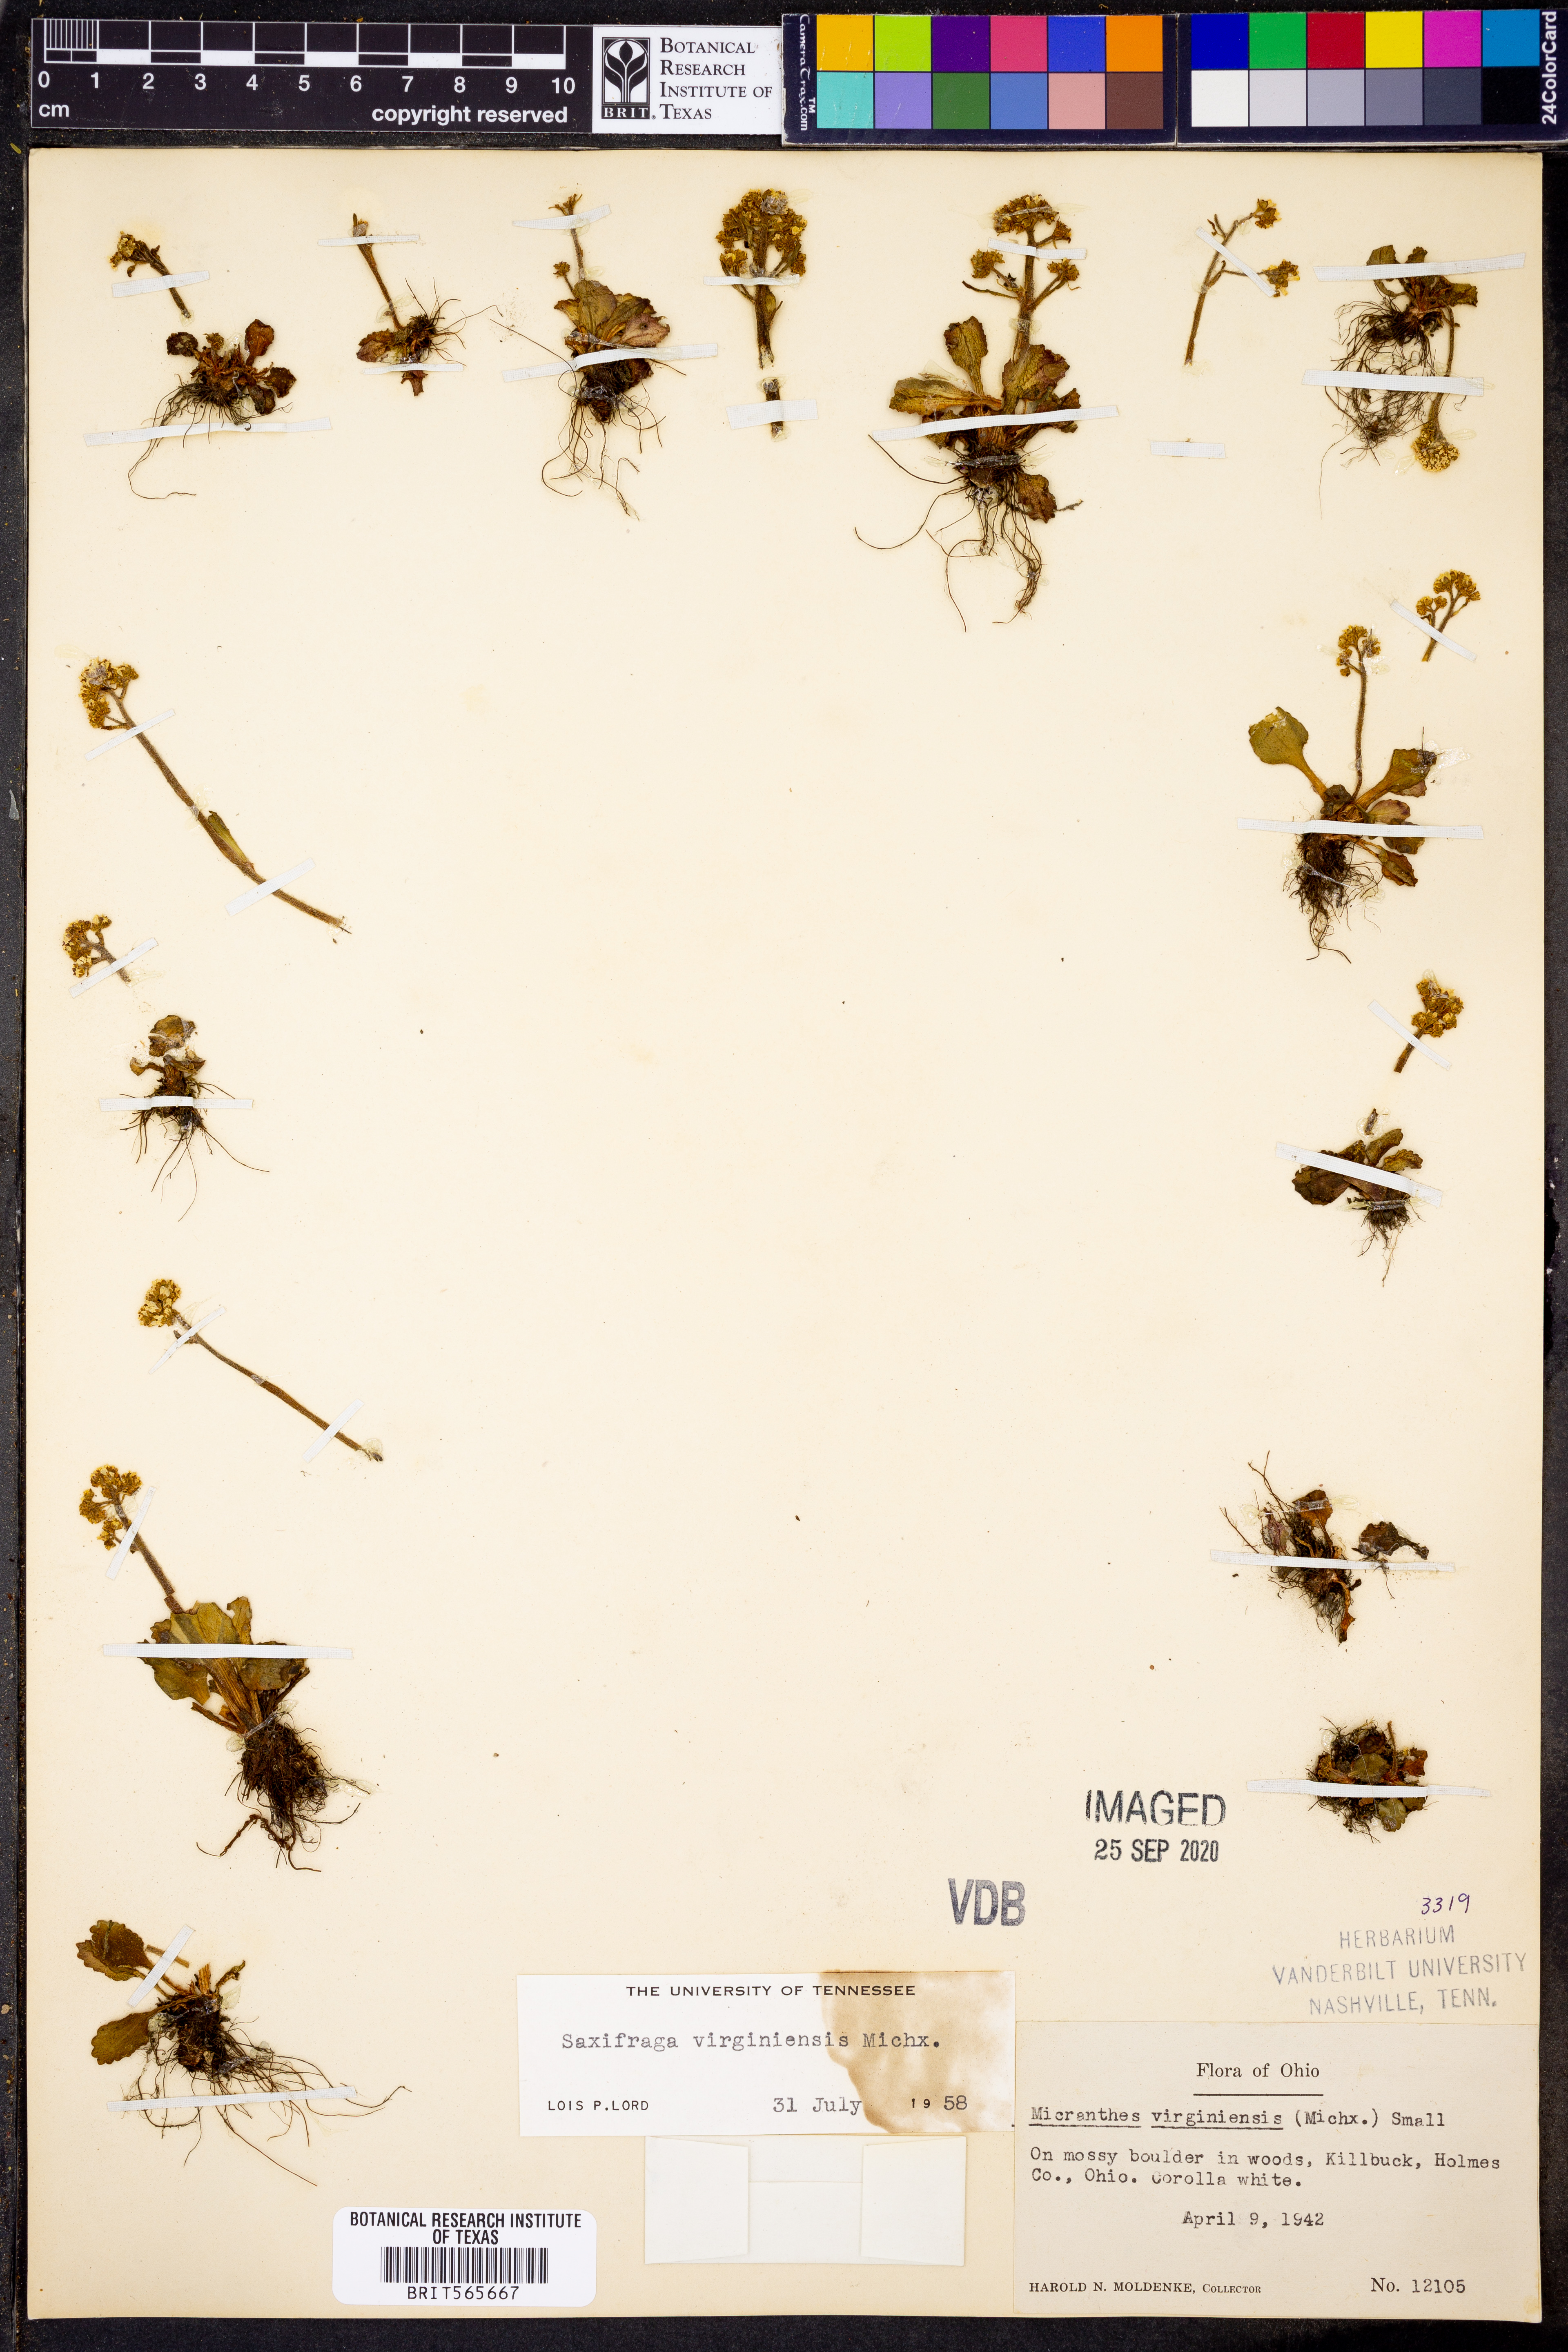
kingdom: Plantae
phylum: Tracheophyta
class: Magnoliopsida
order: Saxifragales
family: Saxifragaceae
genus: Micranthes
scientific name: Micranthes virginiensis
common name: Early saxifrage
